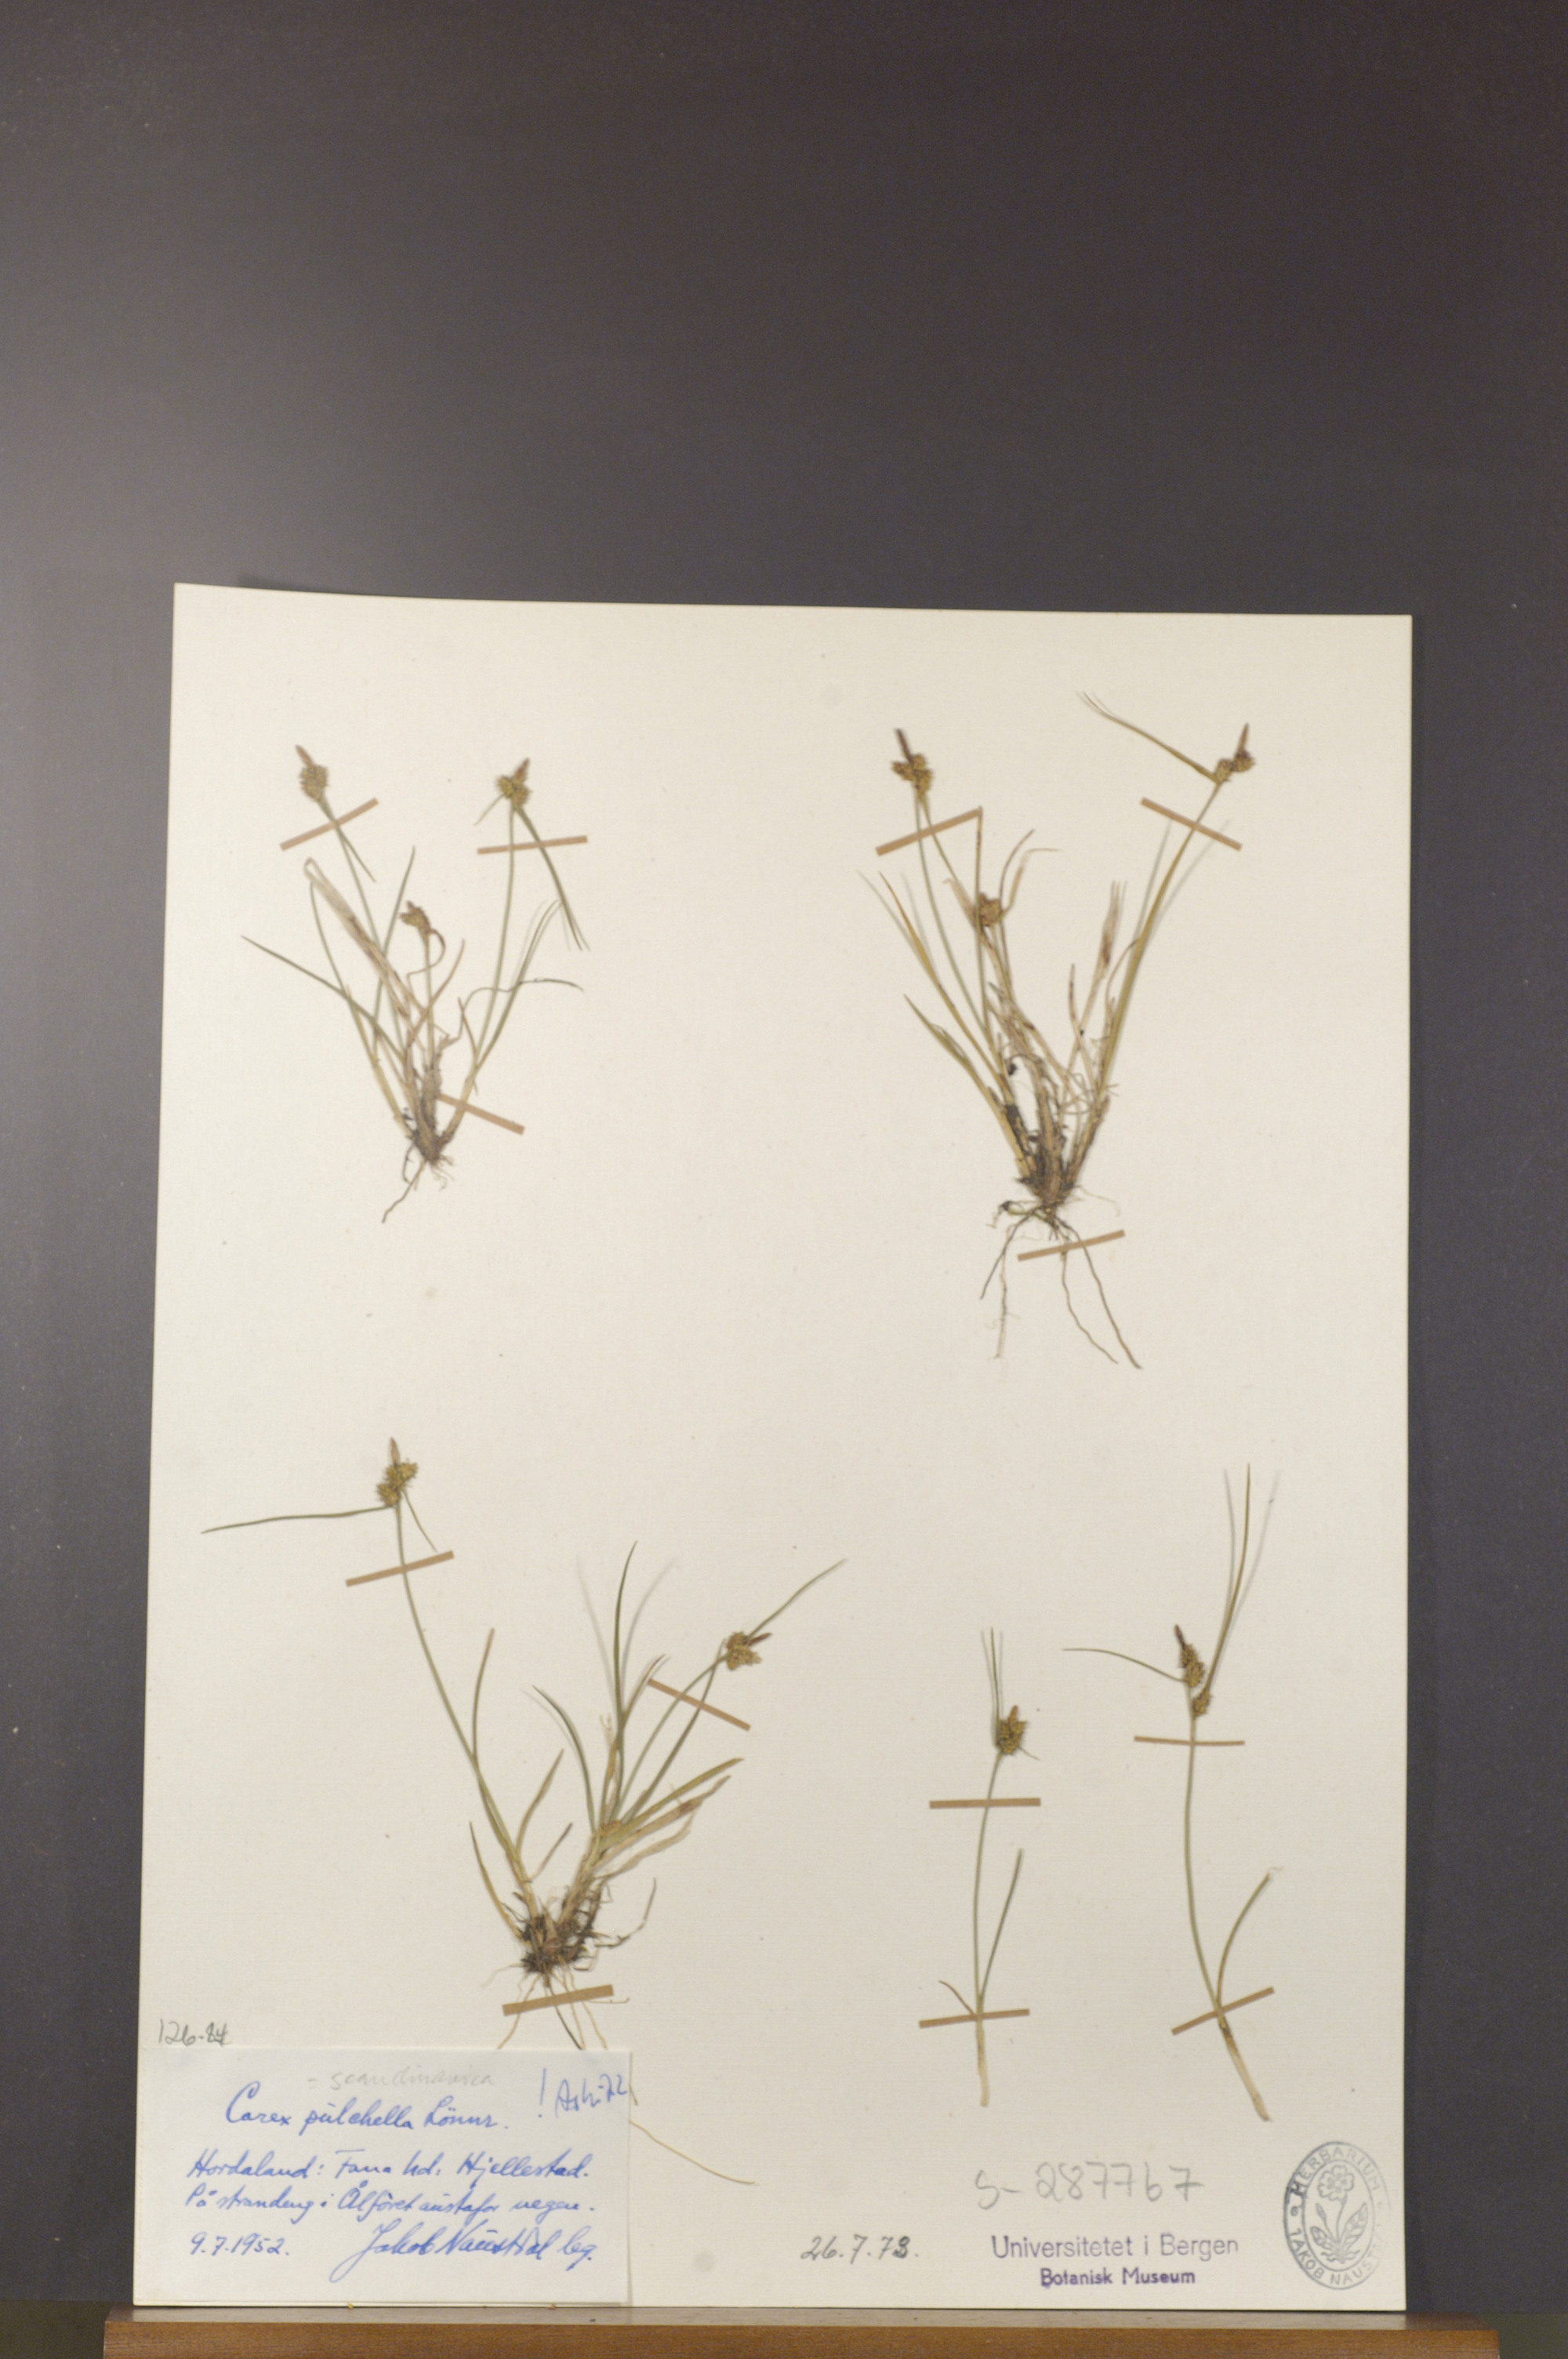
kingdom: Plantae
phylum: Tracheophyta
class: Liliopsida
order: Poales
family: Cyperaceae
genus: Carex
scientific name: Carex oederi
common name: Common & small-fruited yellow-sedge
